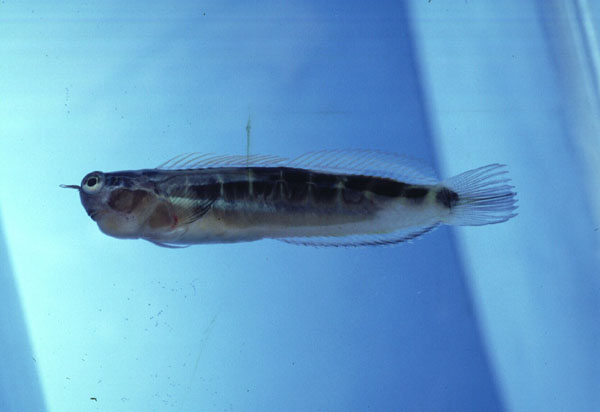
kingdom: Animalia
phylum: Chordata
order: Perciformes
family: Blenniidae
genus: Ecsenius
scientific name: Ecsenius lineatus
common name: Linear blenny
